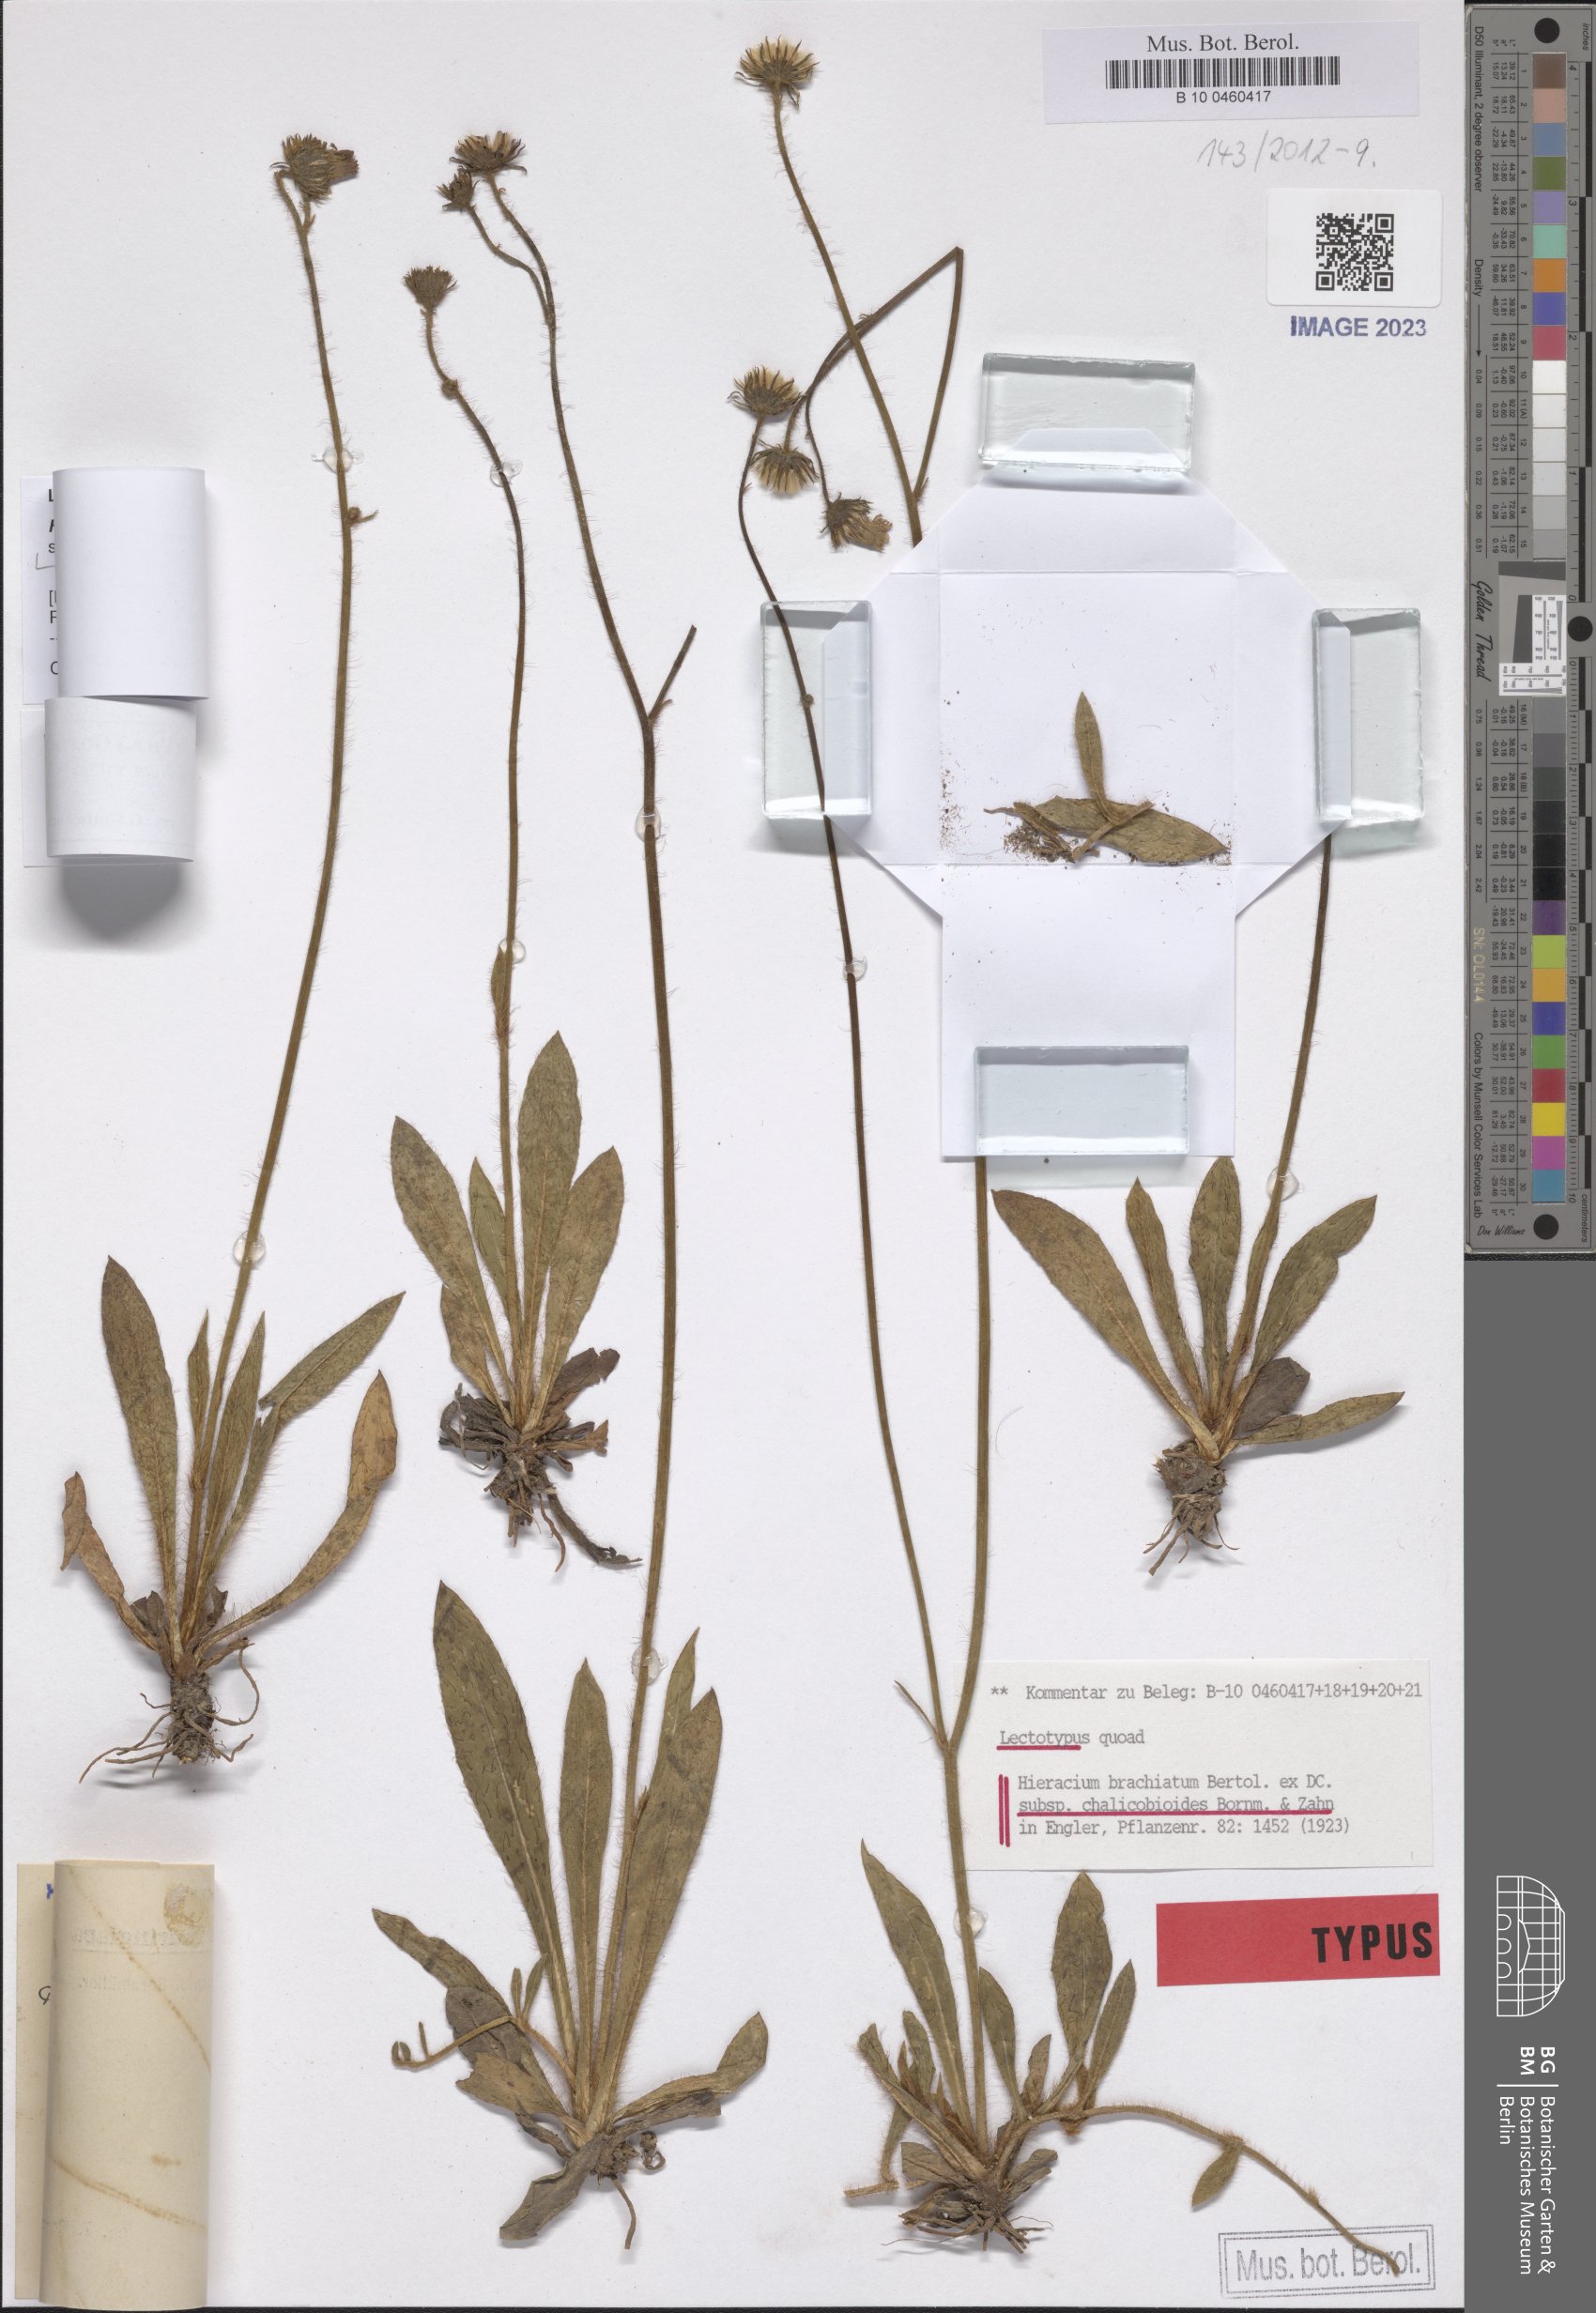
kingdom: Plantae
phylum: Tracheophyta
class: Magnoliopsida
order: Asterales
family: Asteraceae
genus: Pilosella
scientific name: Pilosella acutifolia
